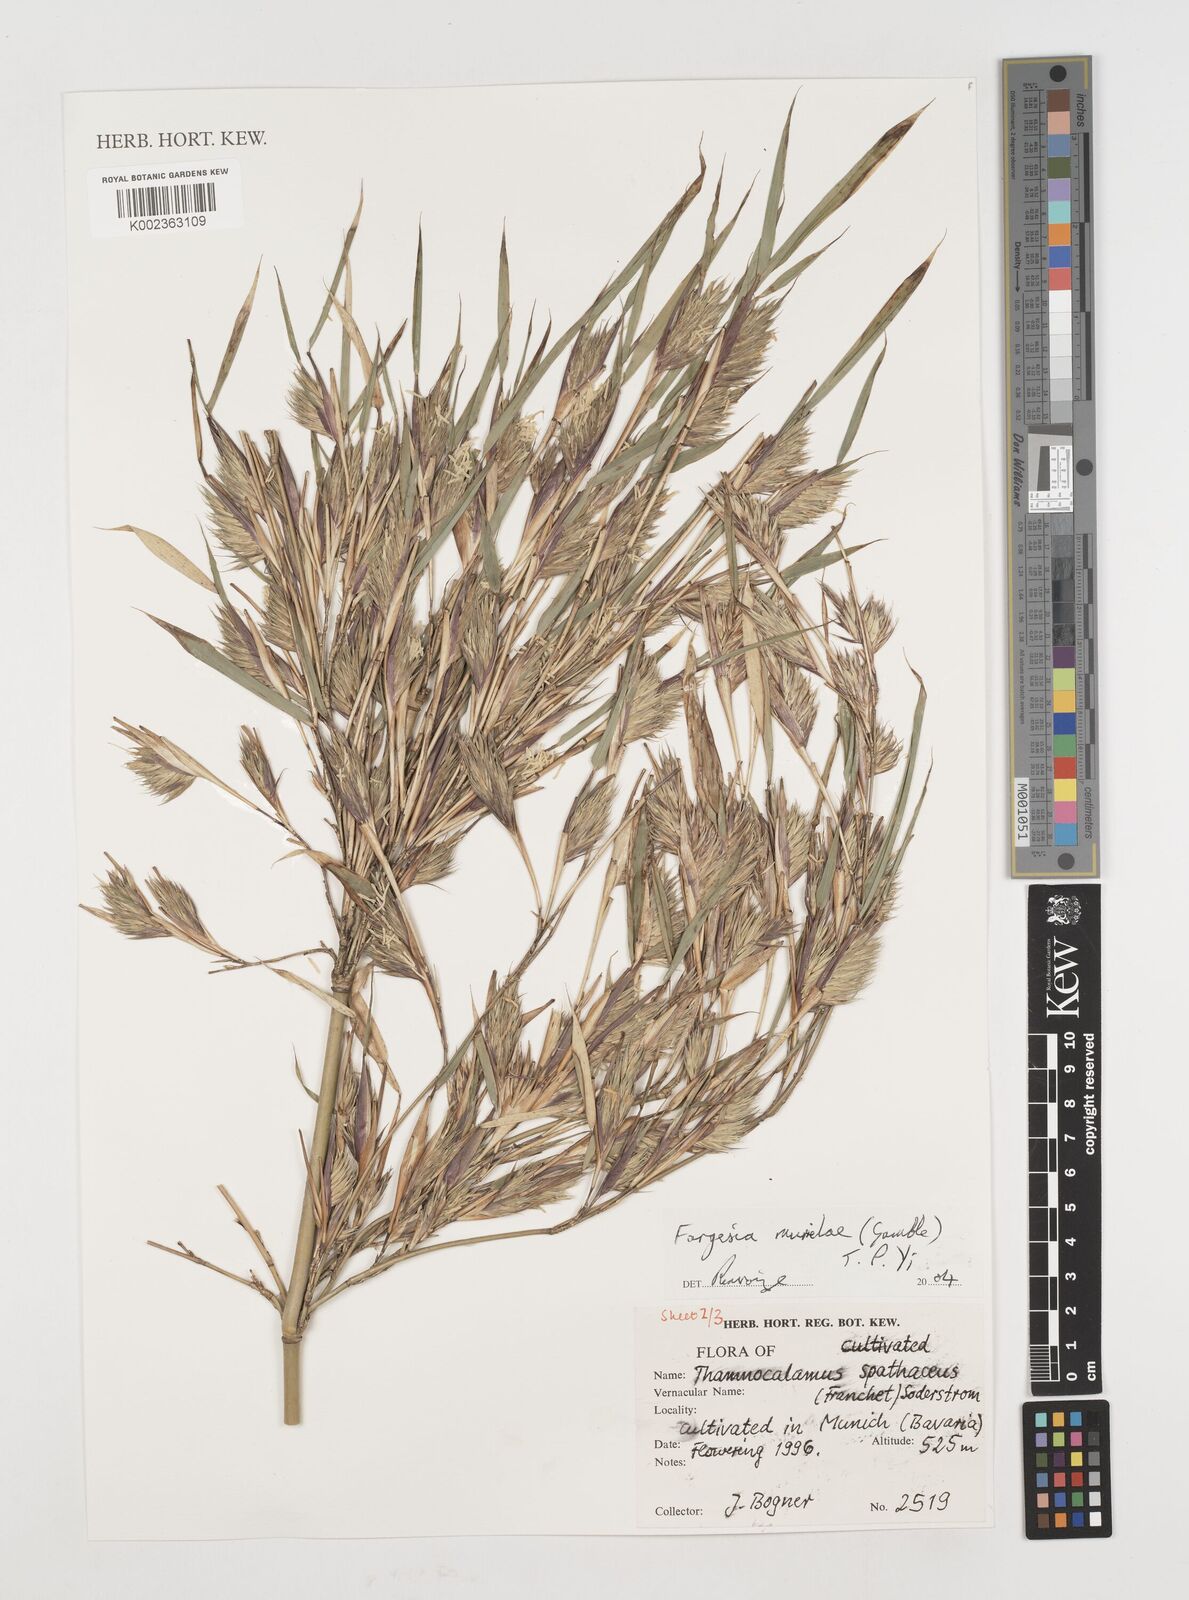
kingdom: Plantae
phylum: Tracheophyta
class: Liliopsida
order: Poales
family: Poaceae
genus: Fargesia
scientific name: Fargesia murielae
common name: Umbrella bamboo
